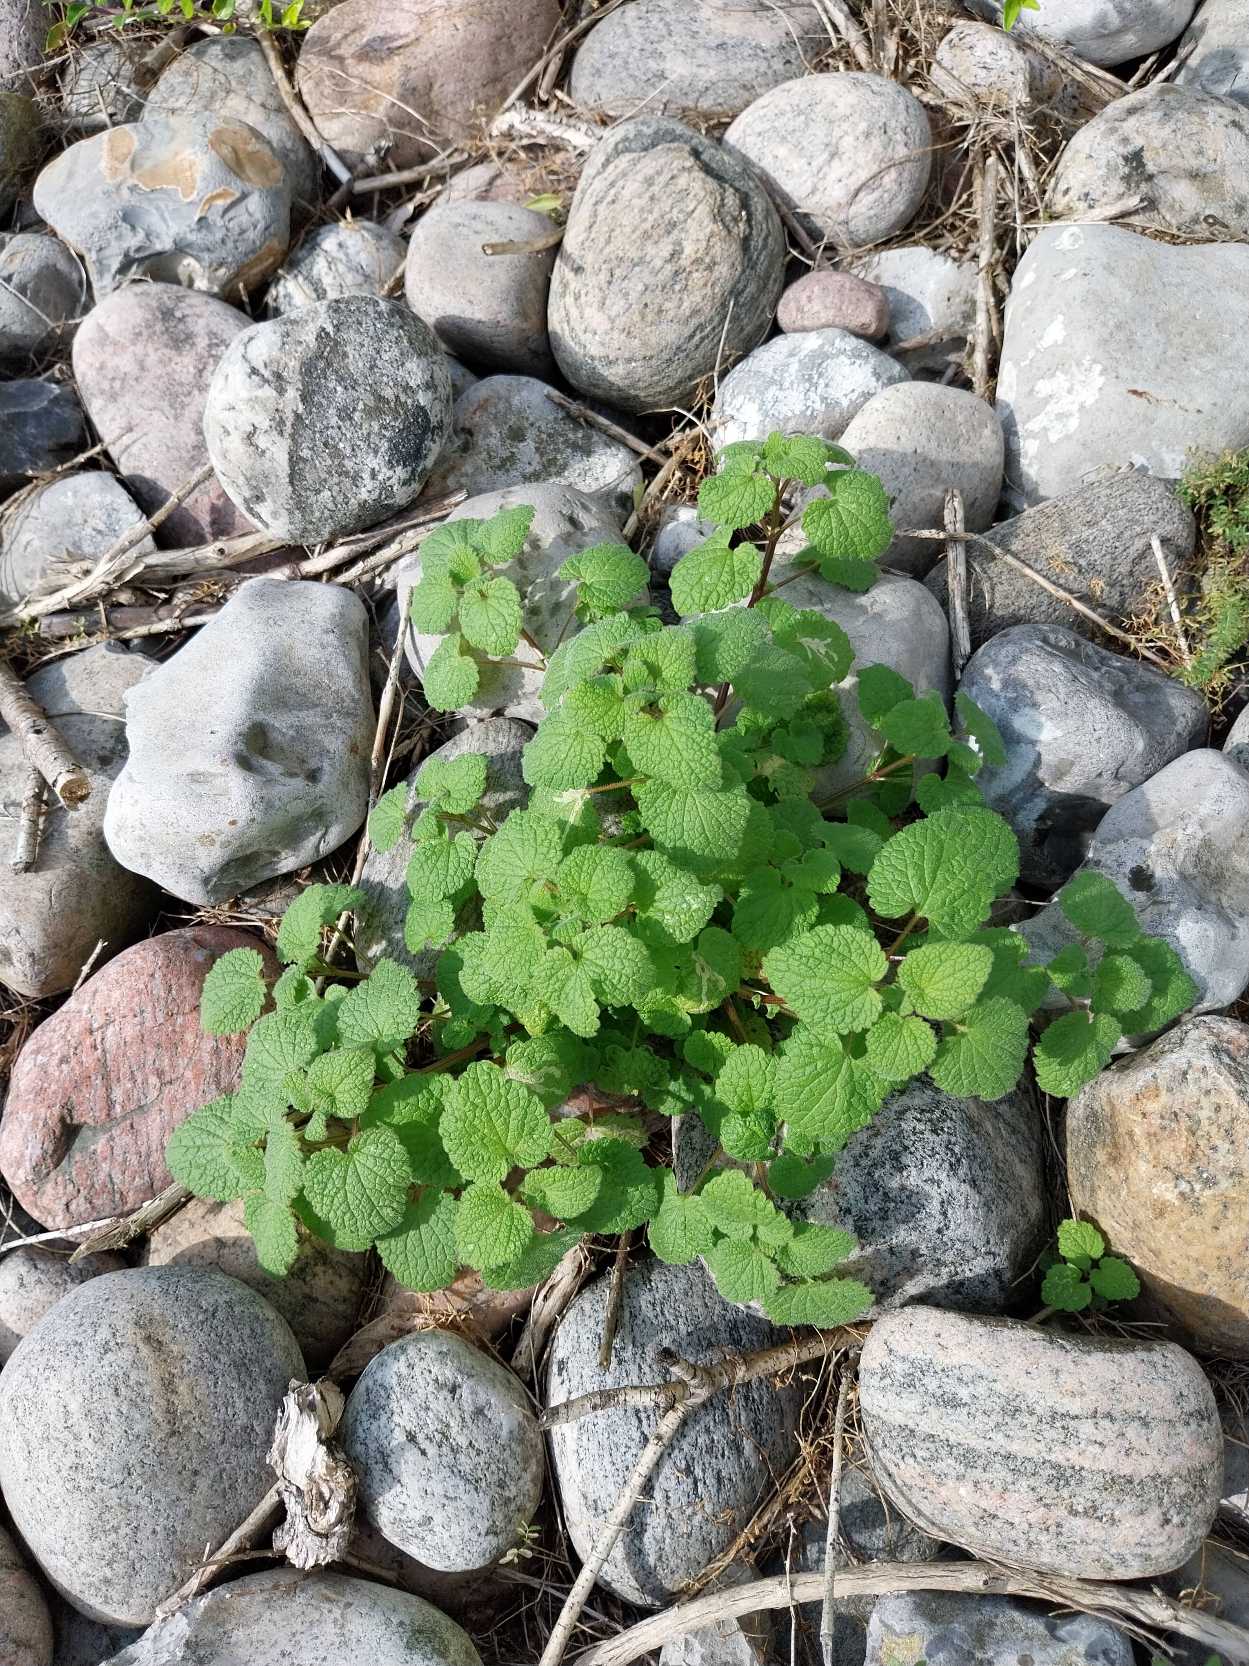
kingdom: Plantae
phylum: Tracheophyta
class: Magnoliopsida
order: Lamiales
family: Lamiaceae
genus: Lamium
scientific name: Lamium purpureum
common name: Rød tvetand
